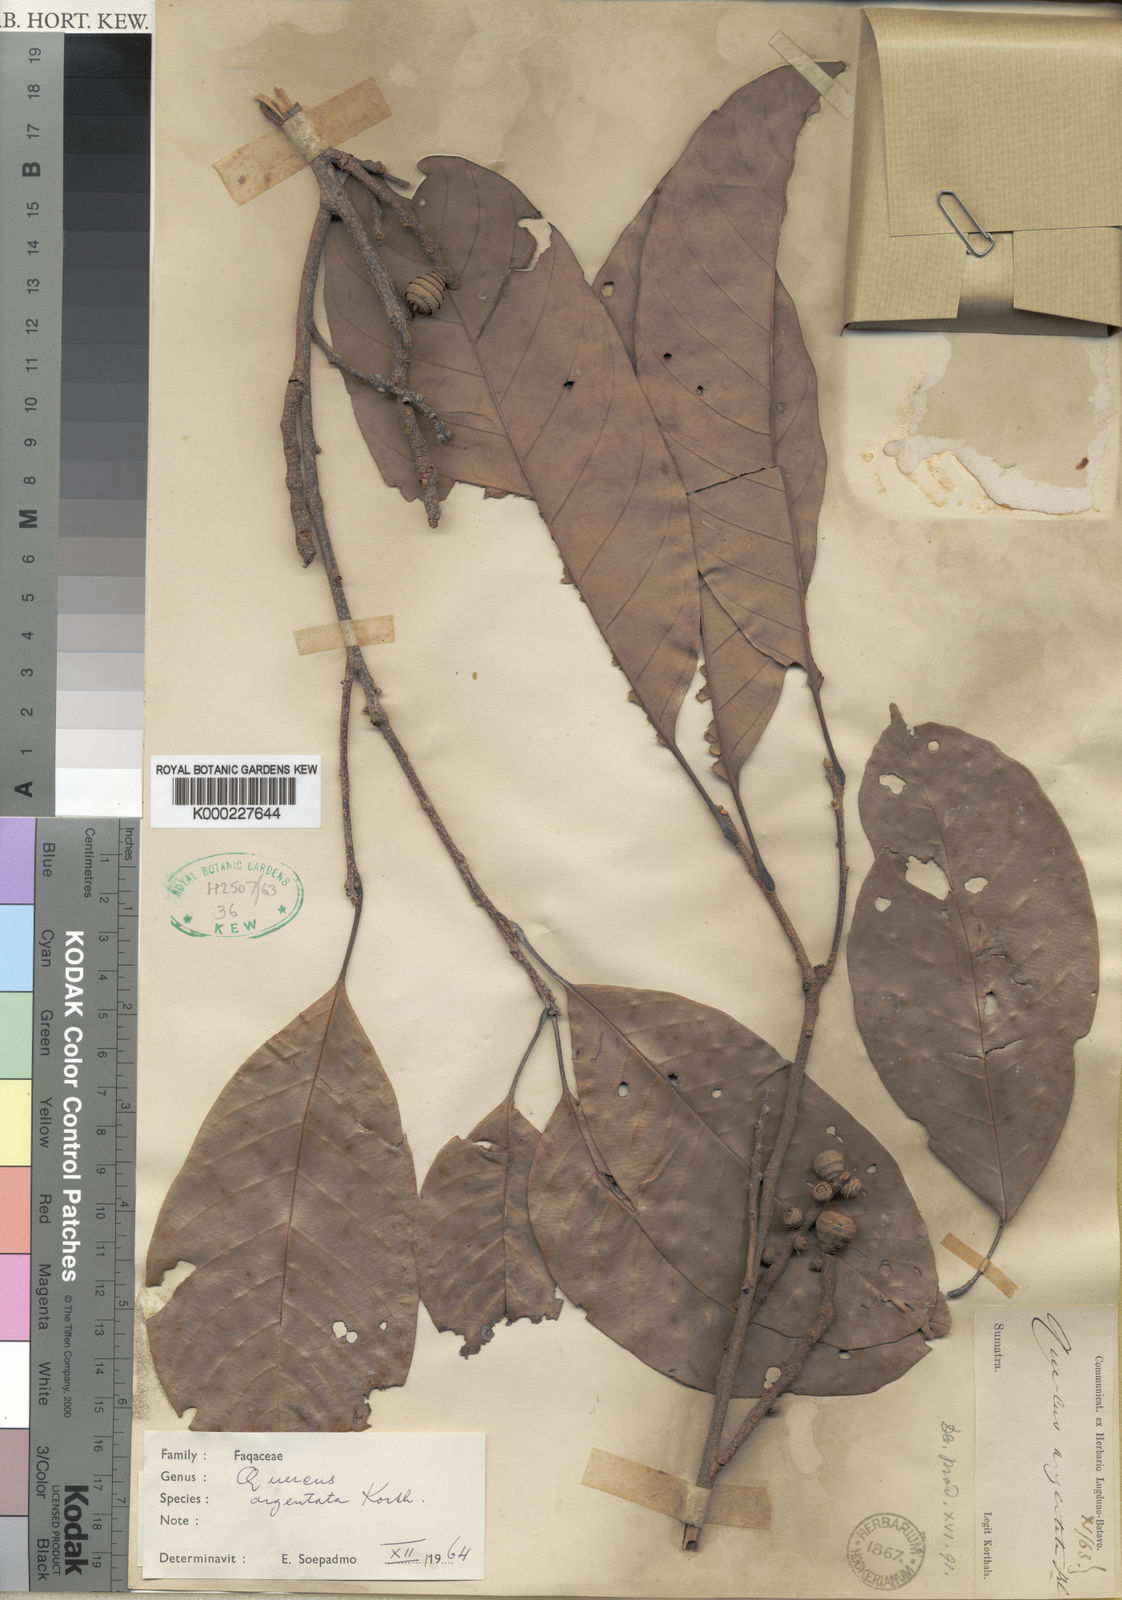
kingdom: Plantae
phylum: Tracheophyta
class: Magnoliopsida
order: Fagales
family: Fagaceae
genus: Quercus
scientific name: Quercus argentata
